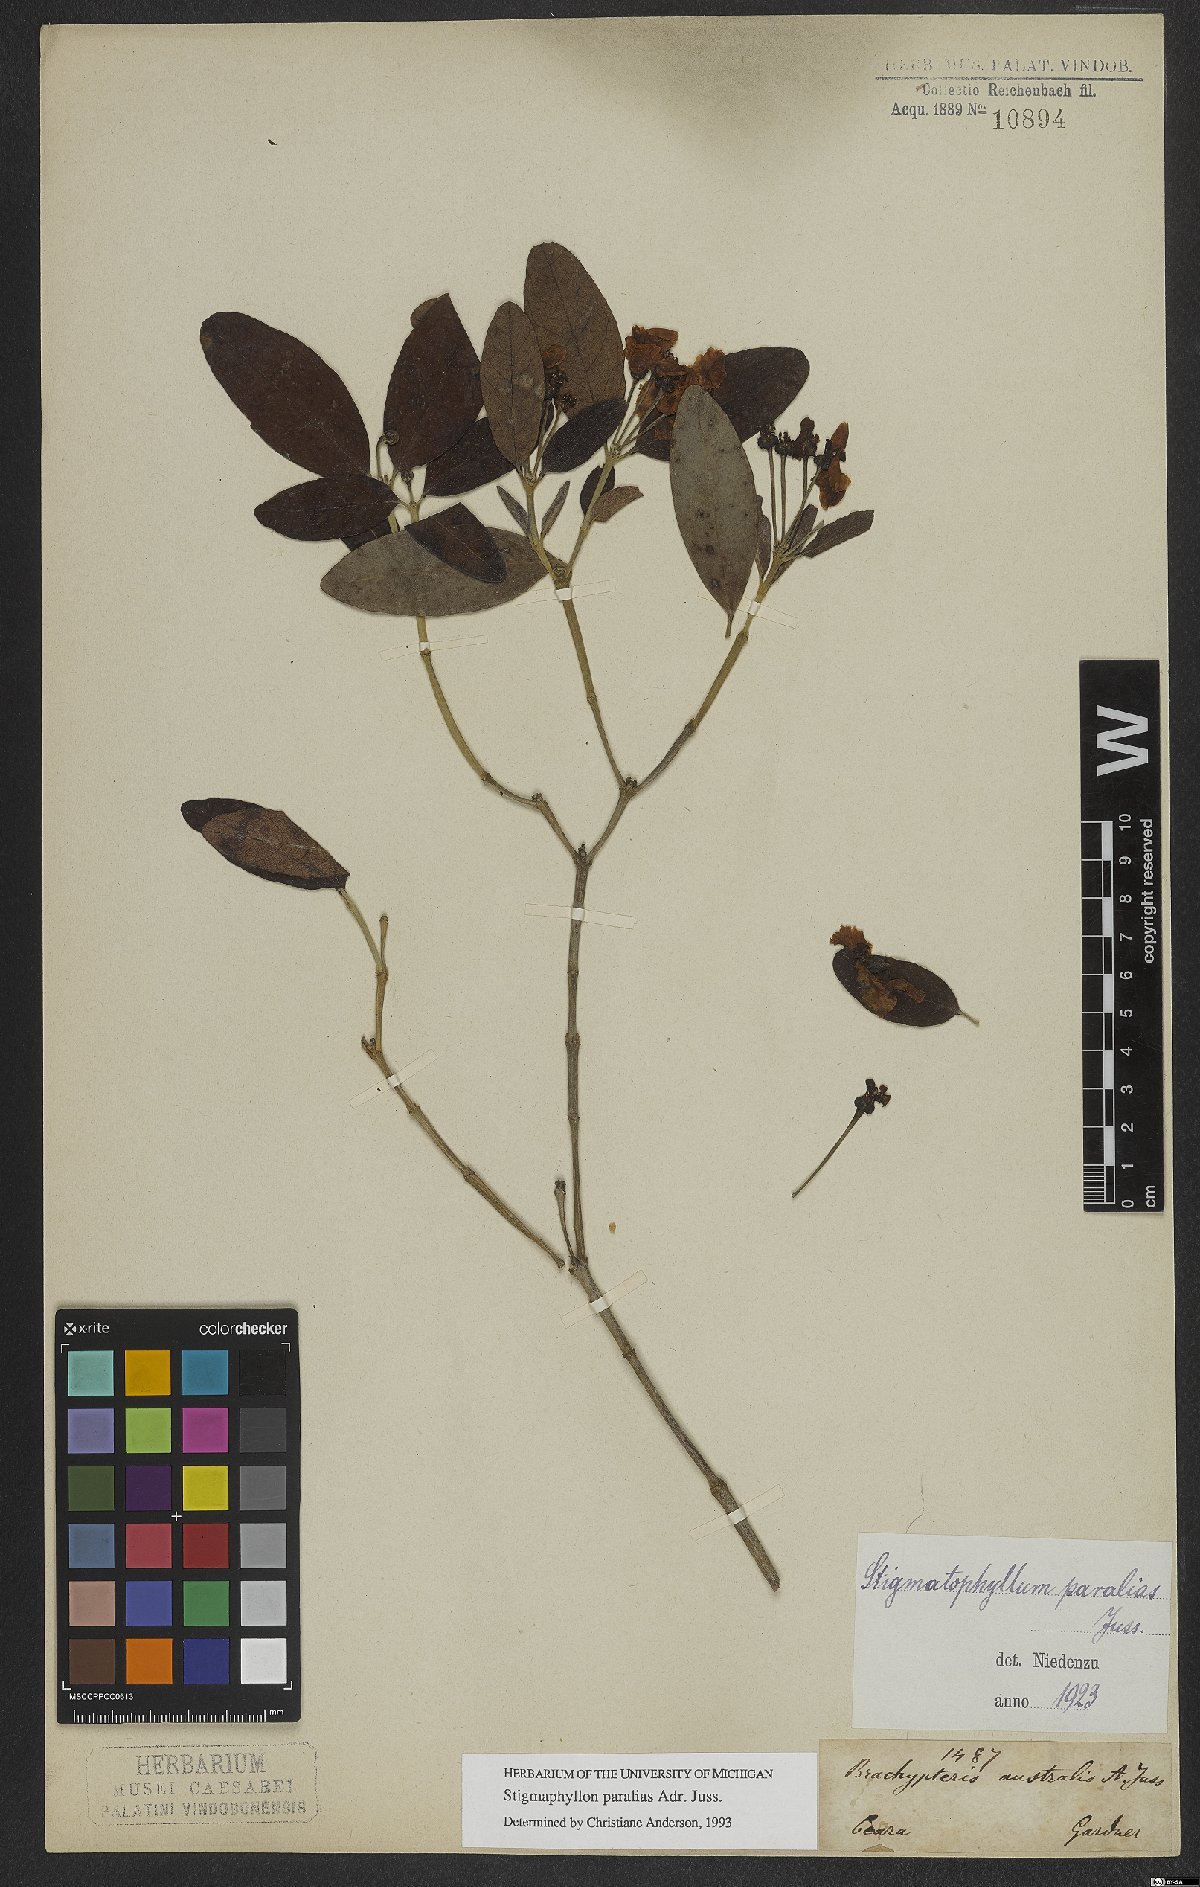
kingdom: Plantae
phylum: Tracheophyta
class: Magnoliopsida
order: Malpighiales
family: Malpighiaceae
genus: Stigmaphyllon
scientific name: Stigmaphyllon paralias
